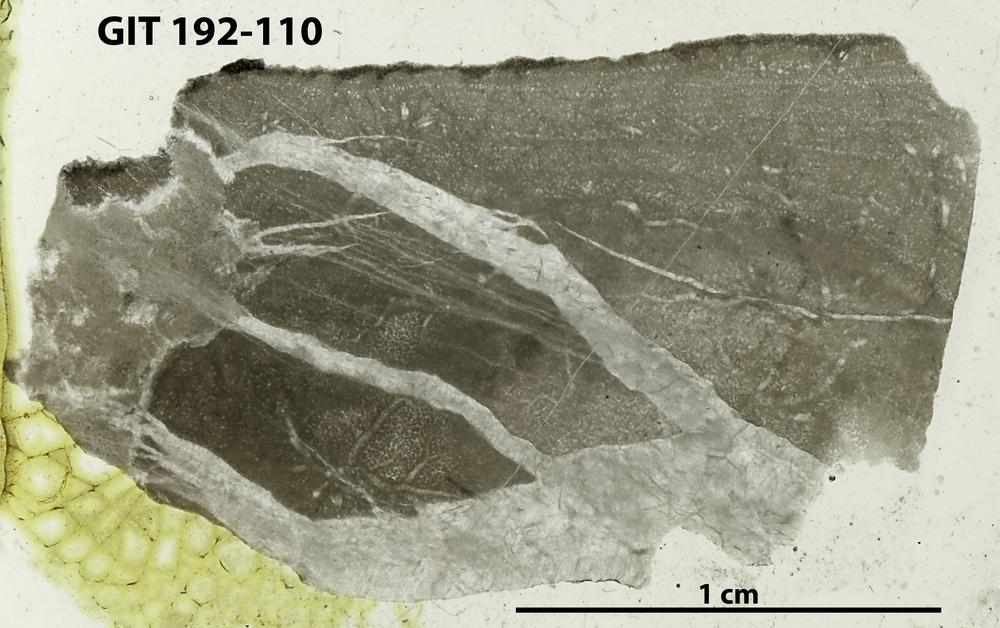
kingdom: Animalia
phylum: Porifera
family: Densastromatidae
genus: Araneosustroma
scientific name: Araneosustroma
